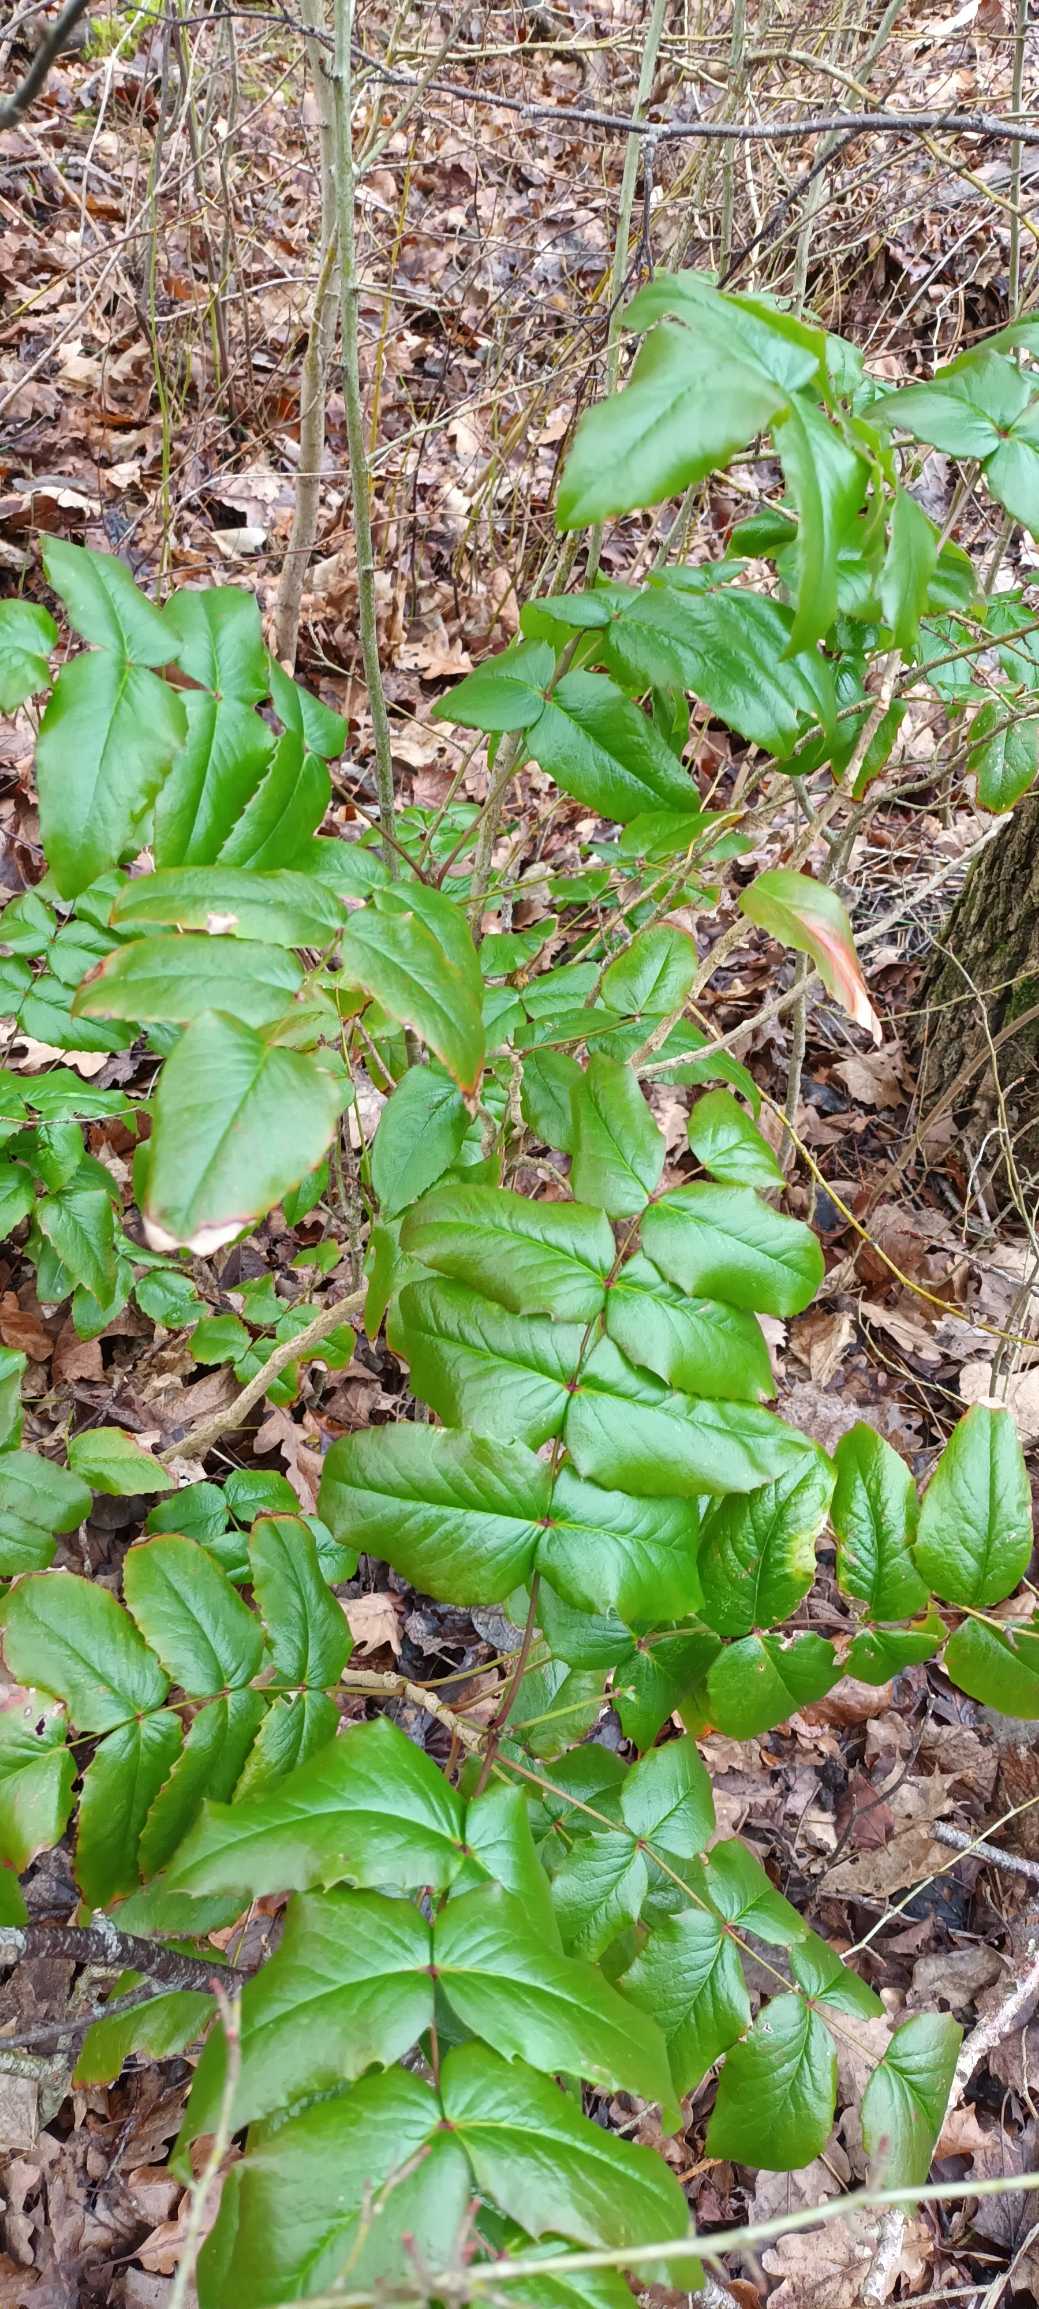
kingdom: Plantae
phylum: Tracheophyta
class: Magnoliopsida
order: Ranunculales
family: Berberidaceae
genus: Mahonia
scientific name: Mahonia aquifolium
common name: Almindelig mahonie
